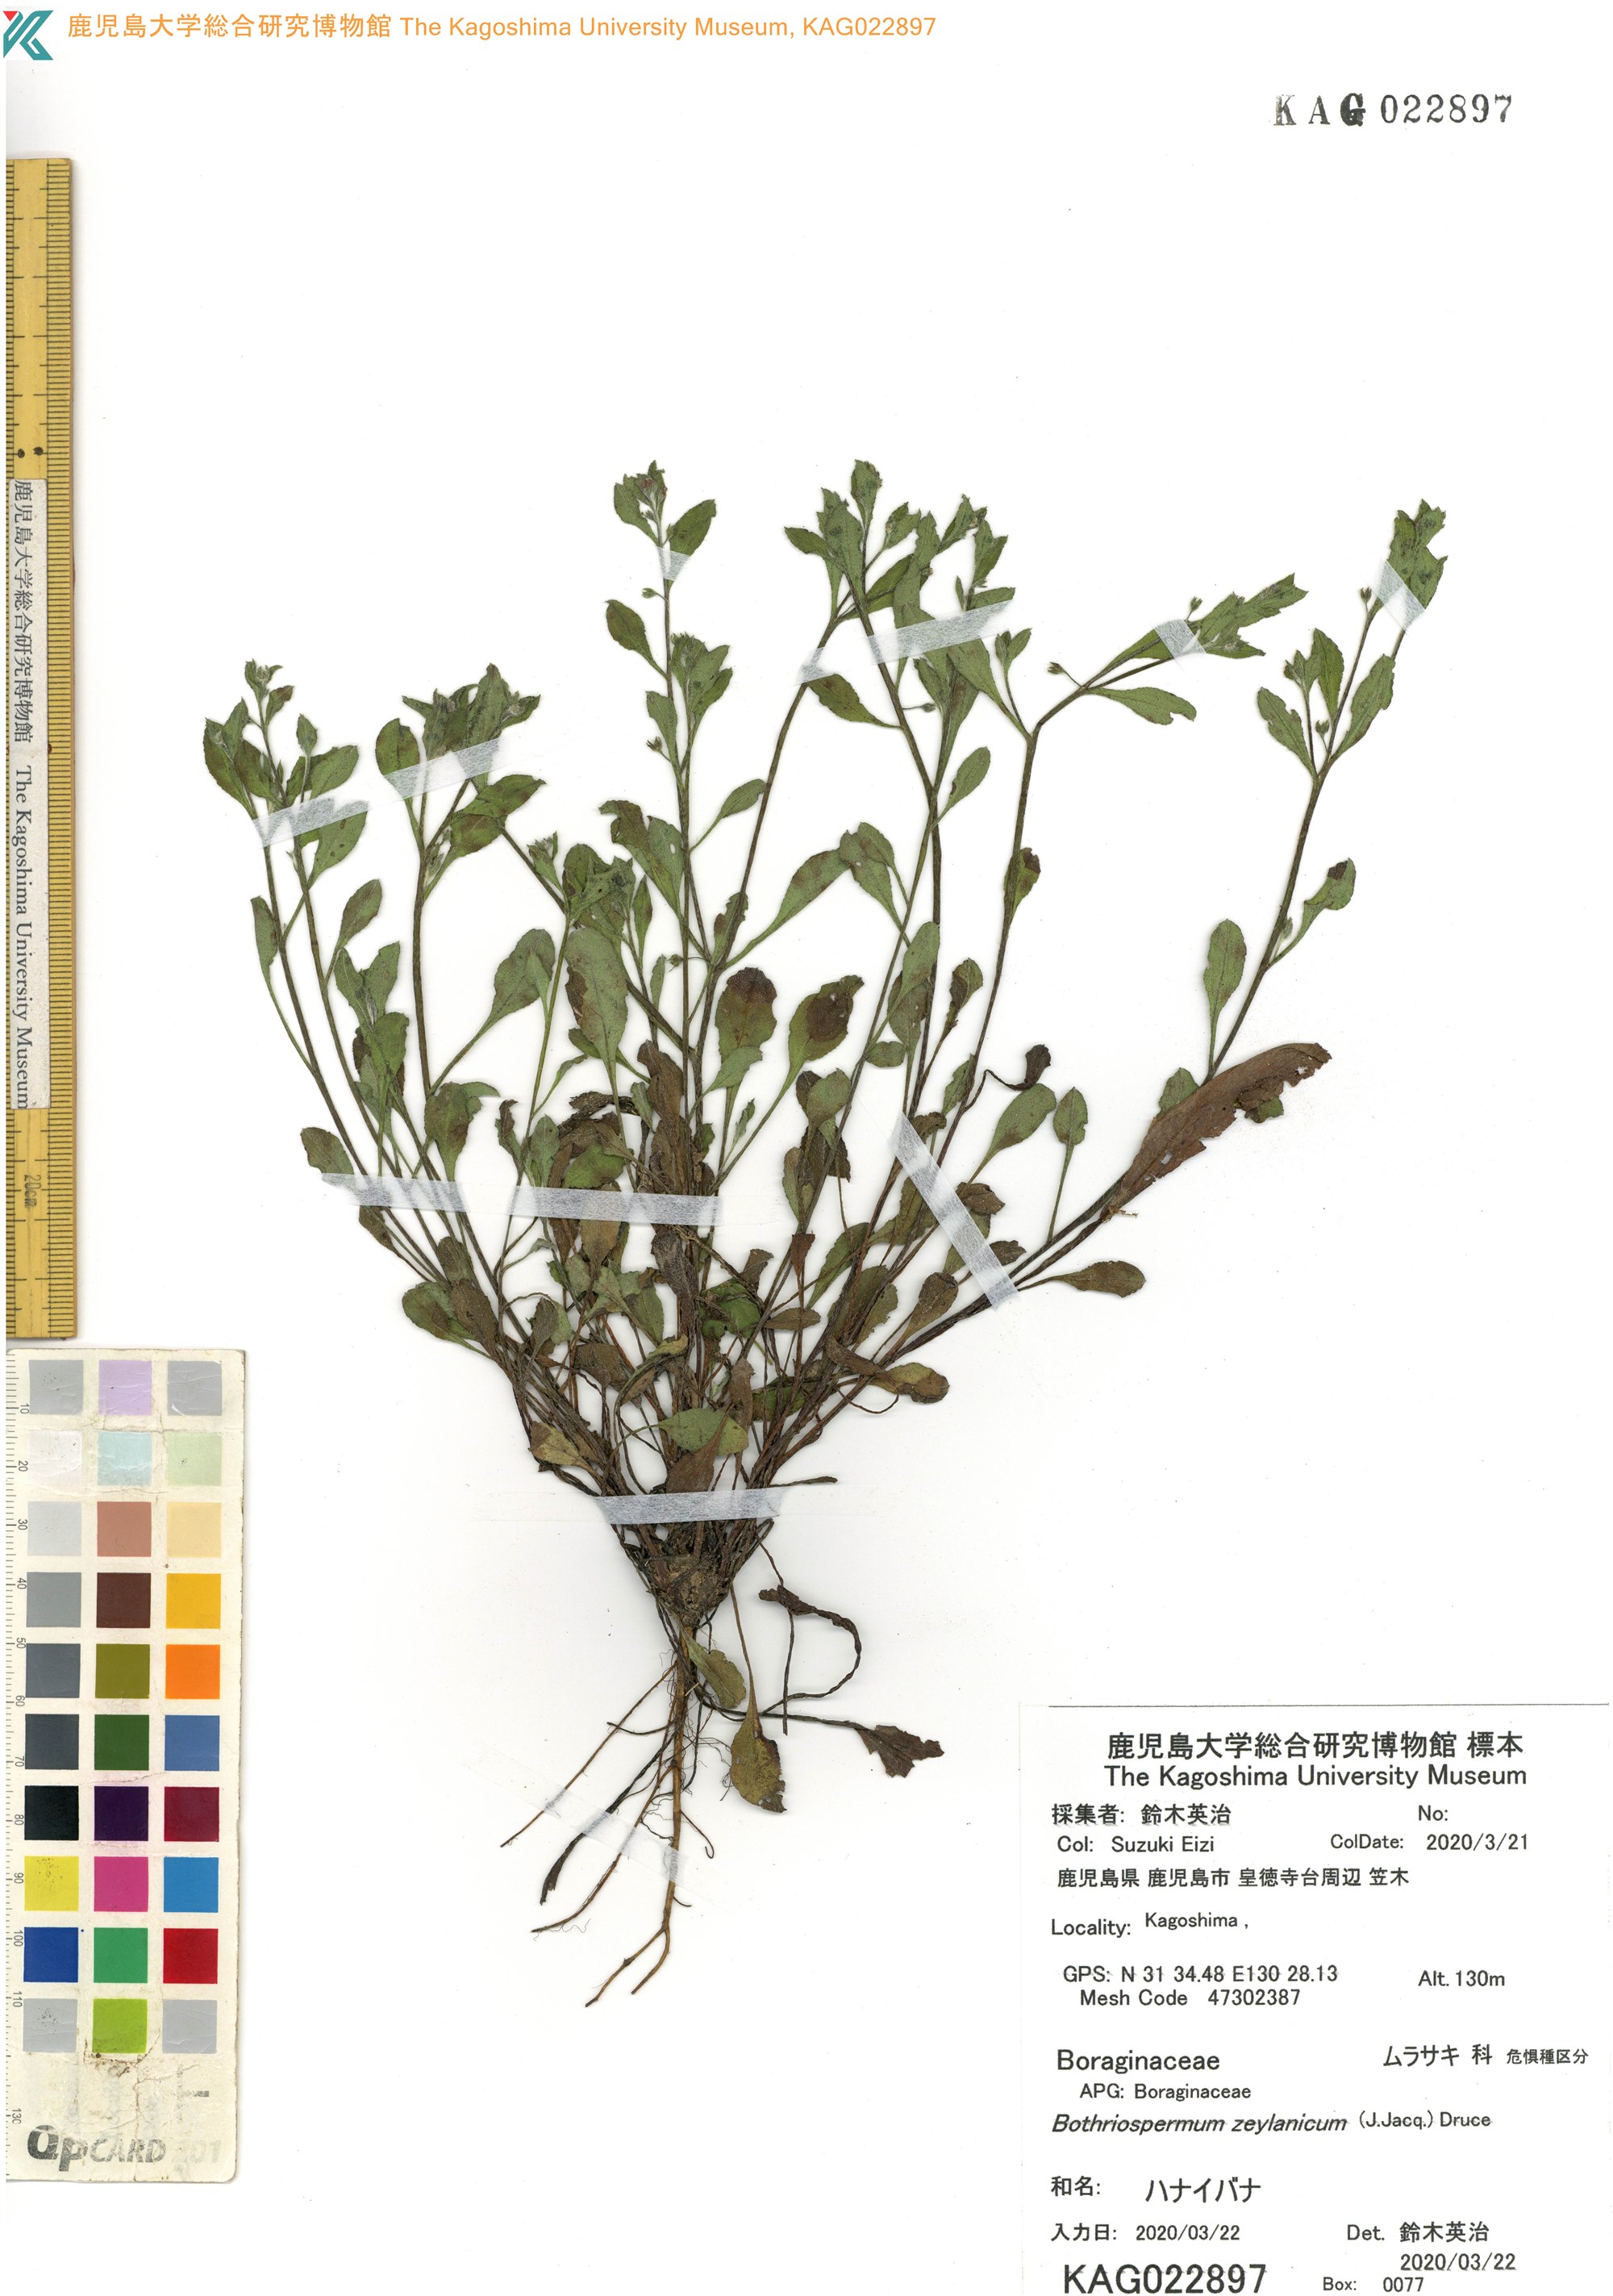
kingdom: Plantae
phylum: Tracheophyta
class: Magnoliopsida
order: Boraginales
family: Boraginaceae
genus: Bothriospermum
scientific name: Bothriospermum zeylanicum
